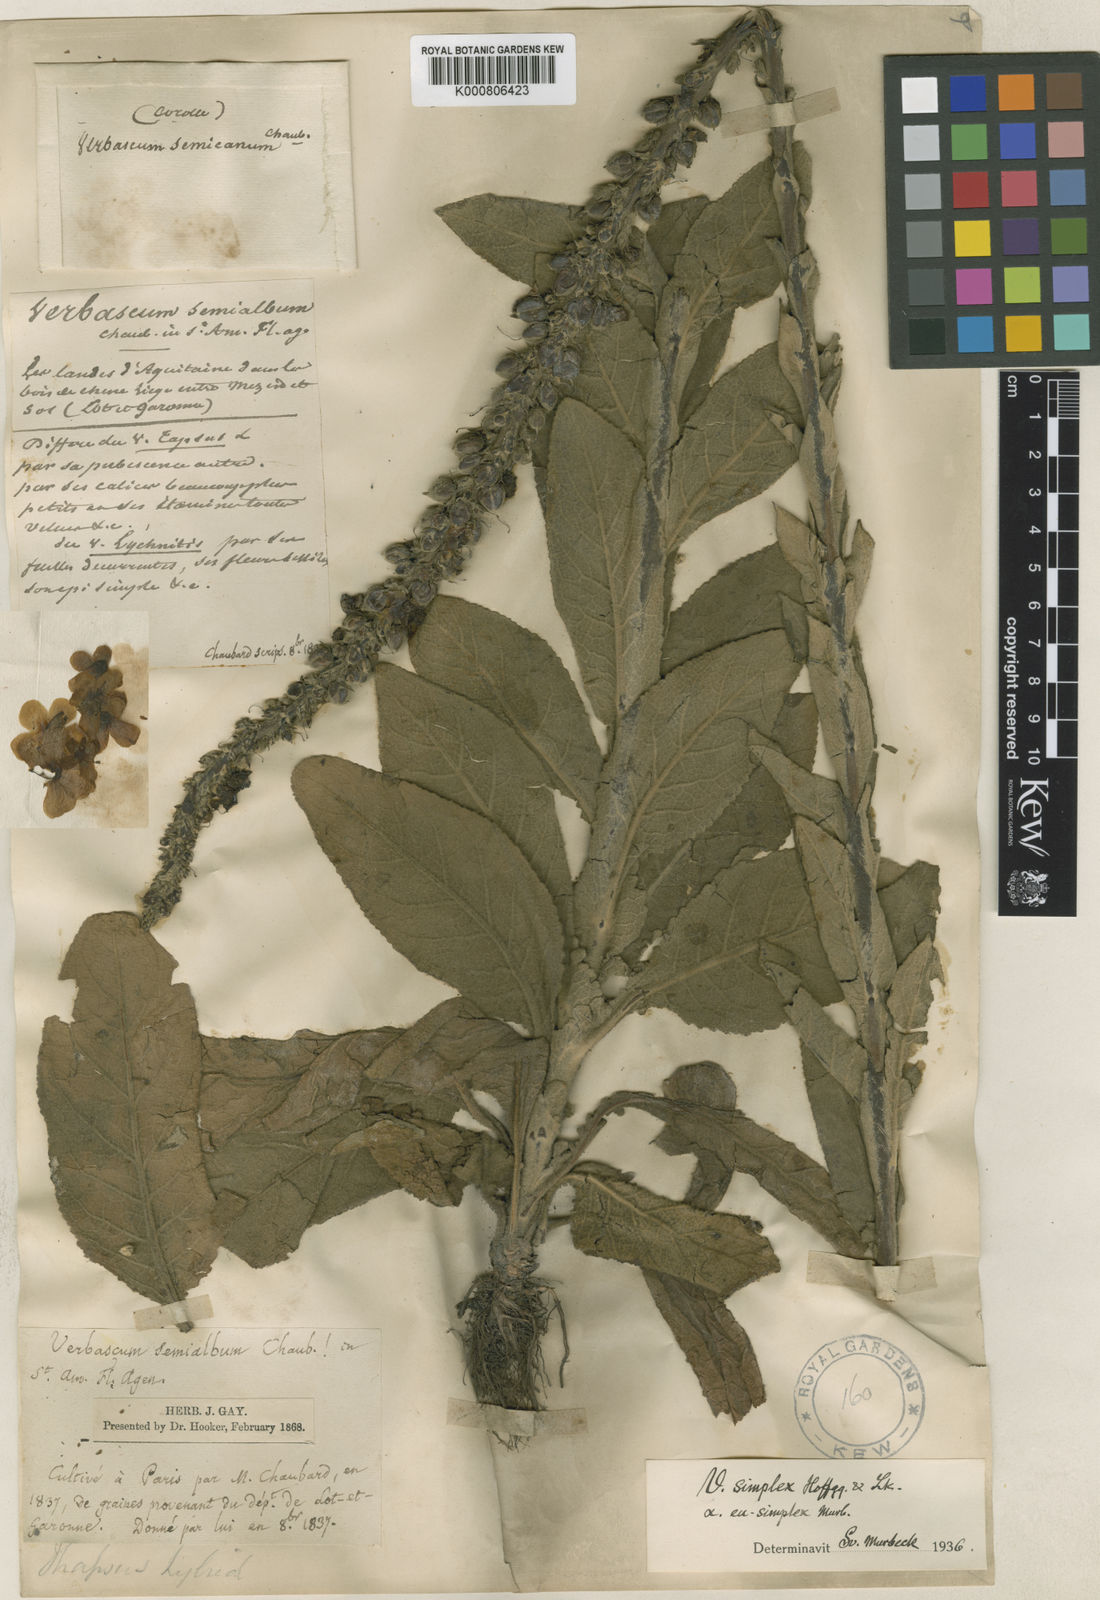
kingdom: Plantae
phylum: Tracheophyta
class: Magnoliopsida
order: Lamiales
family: Scrophulariaceae
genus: Verbascum
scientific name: Verbascum thapsus
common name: Common mullein
